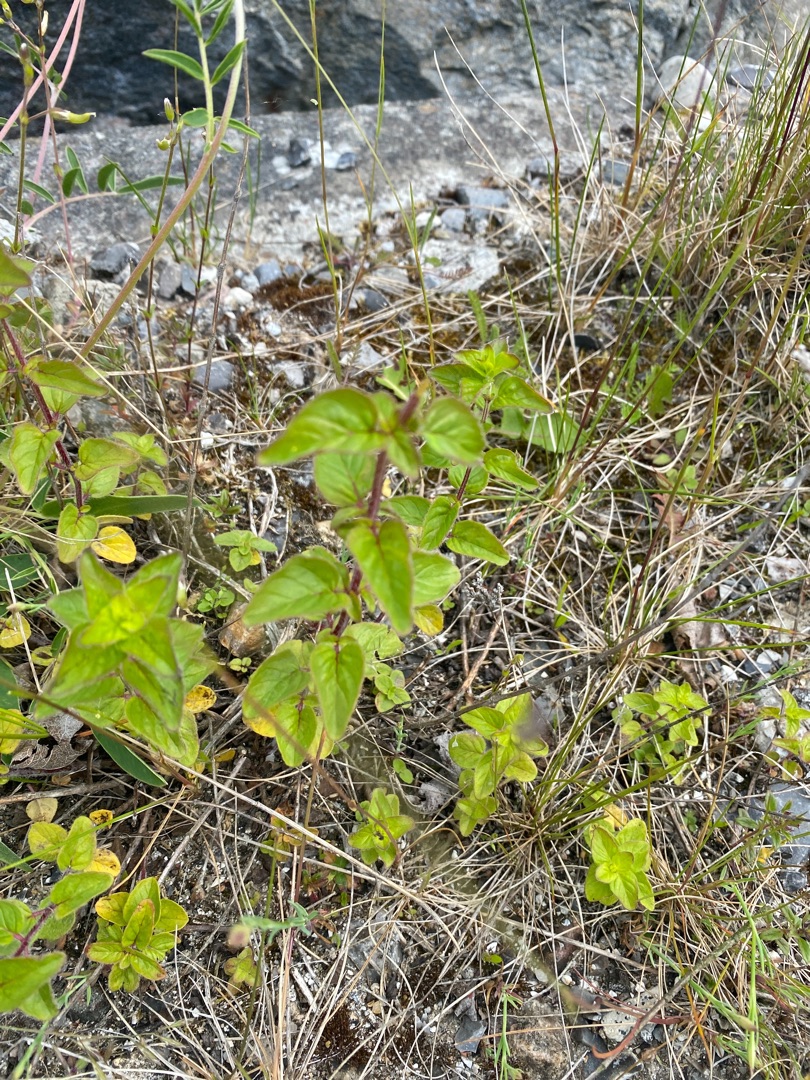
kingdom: Plantae
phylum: Tracheophyta
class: Magnoliopsida
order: Lamiales
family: Lamiaceae
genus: Origanum
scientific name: Origanum vulgare
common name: Merian
